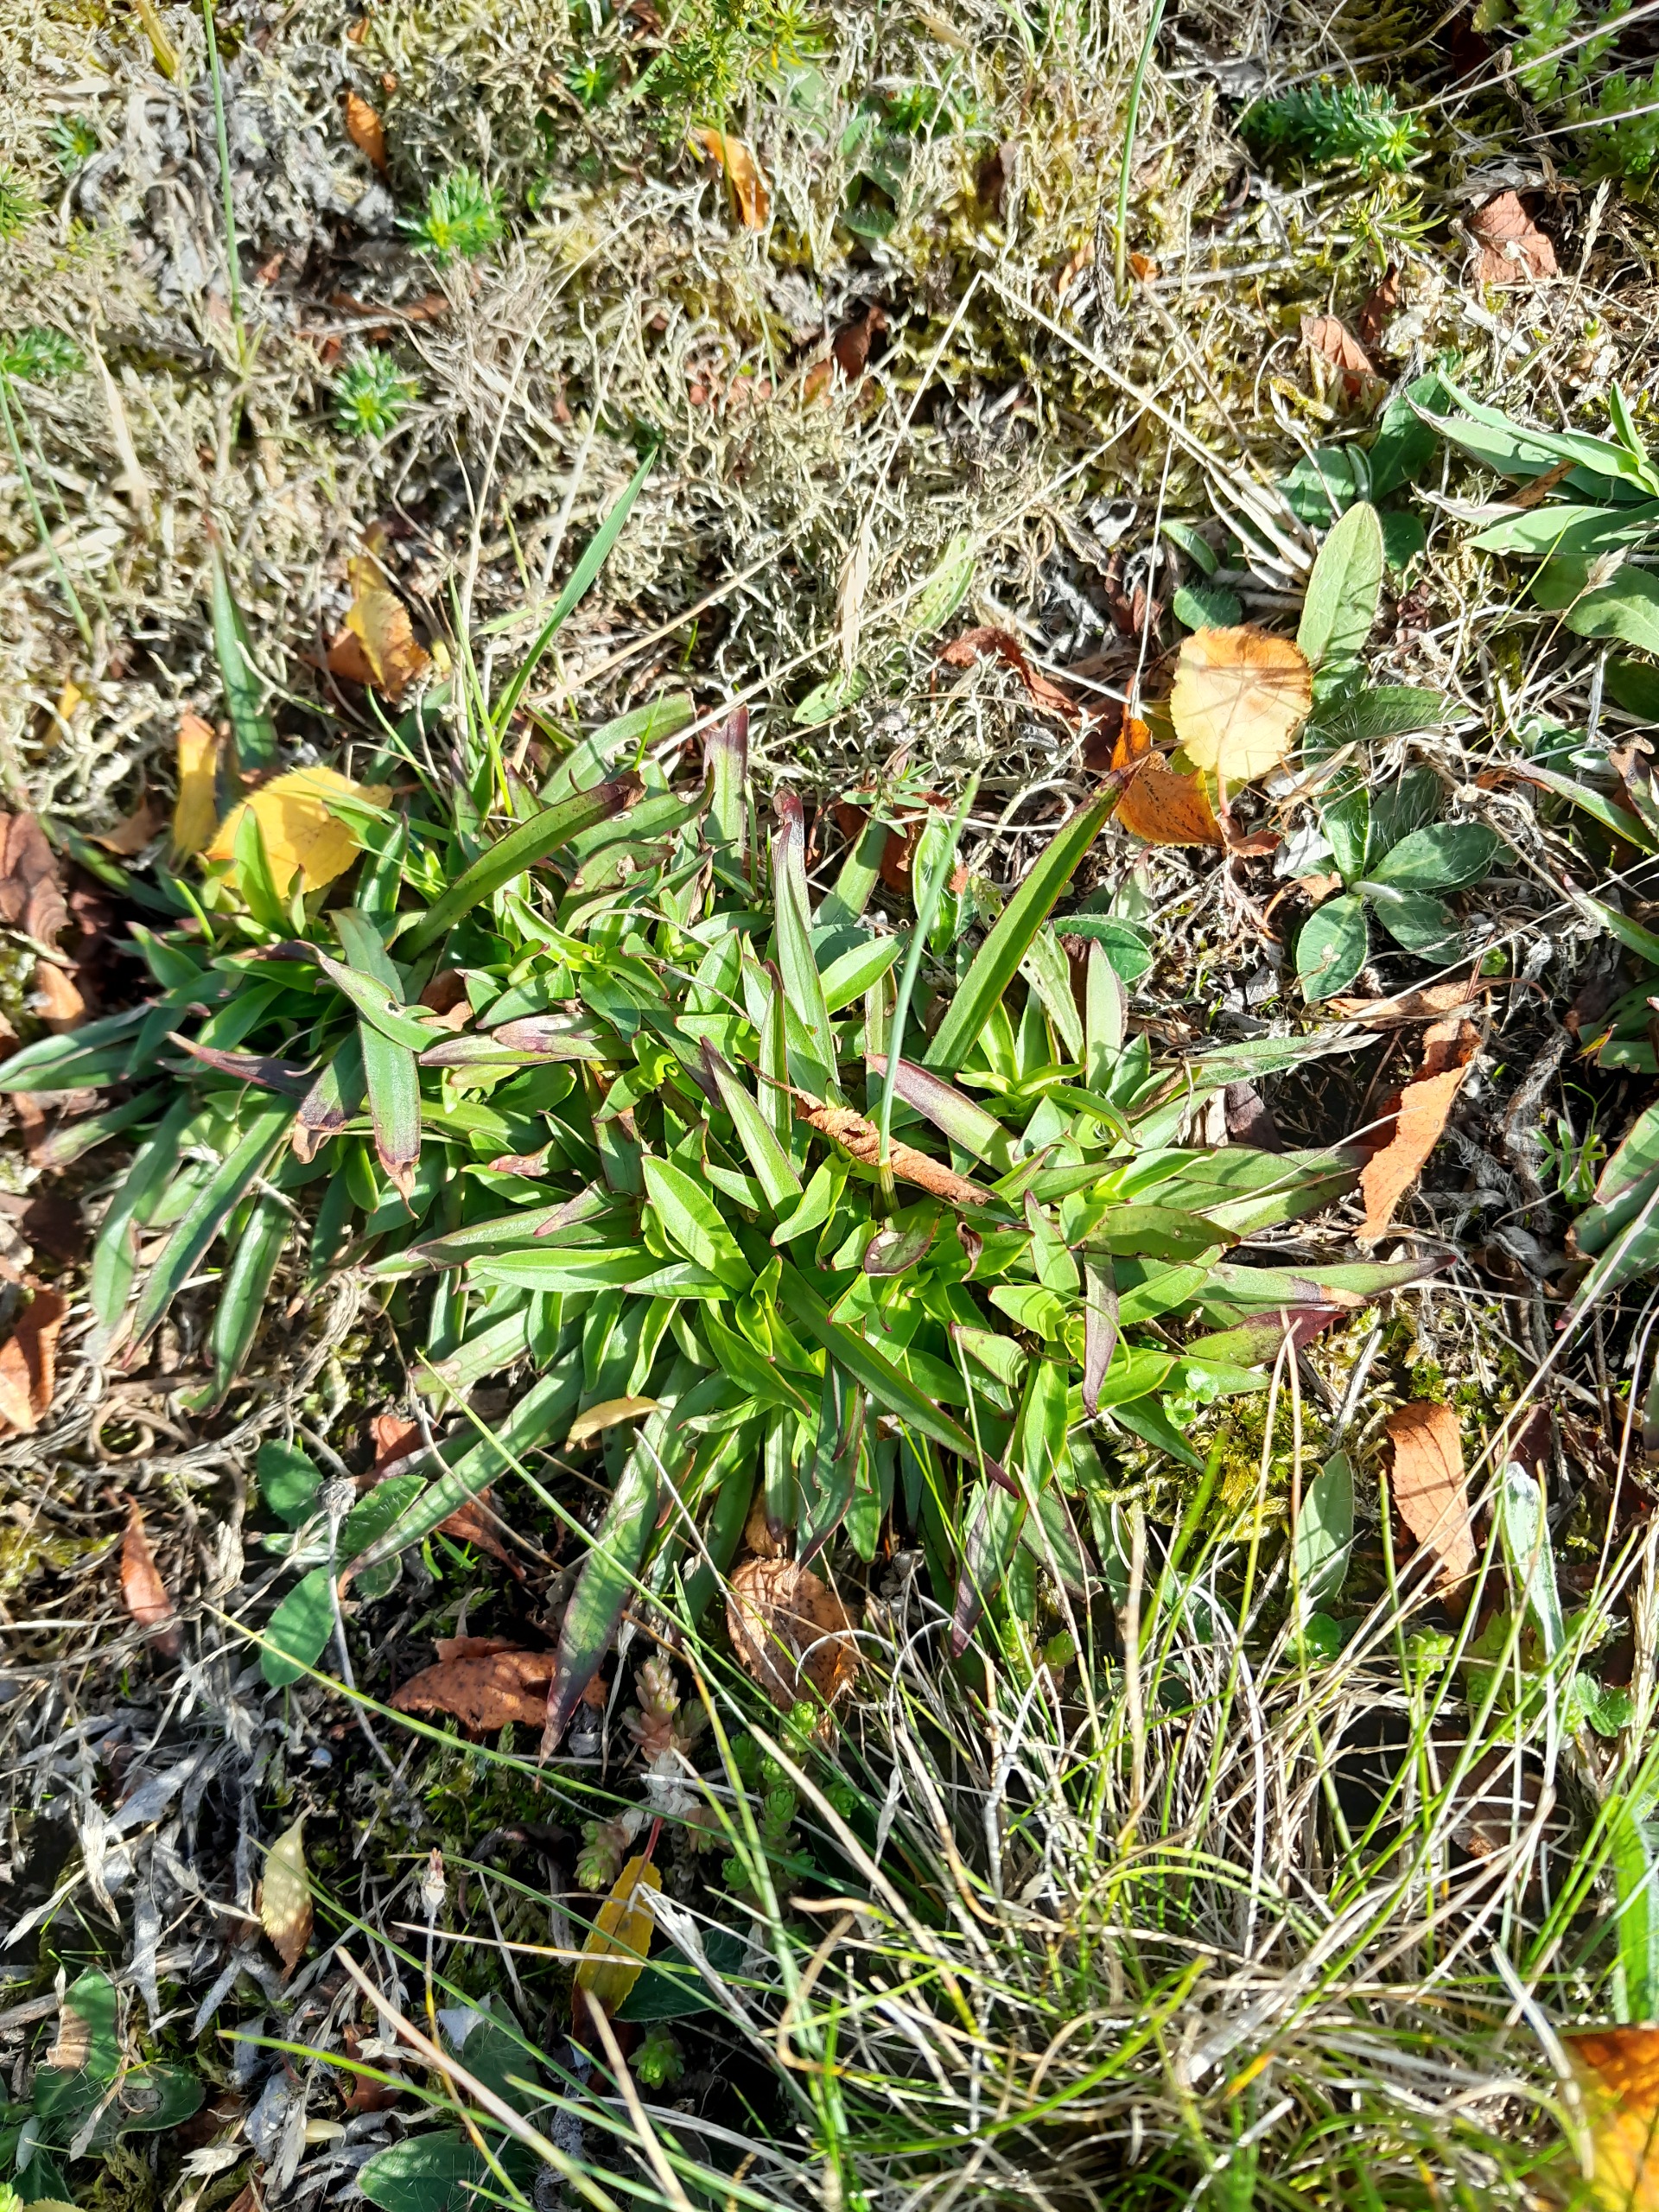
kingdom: Plantae
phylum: Tracheophyta
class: Magnoliopsida
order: Caryophyllales
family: Caryophyllaceae
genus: Viscaria
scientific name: Viscaria vulgaris
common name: Tjærenellike
